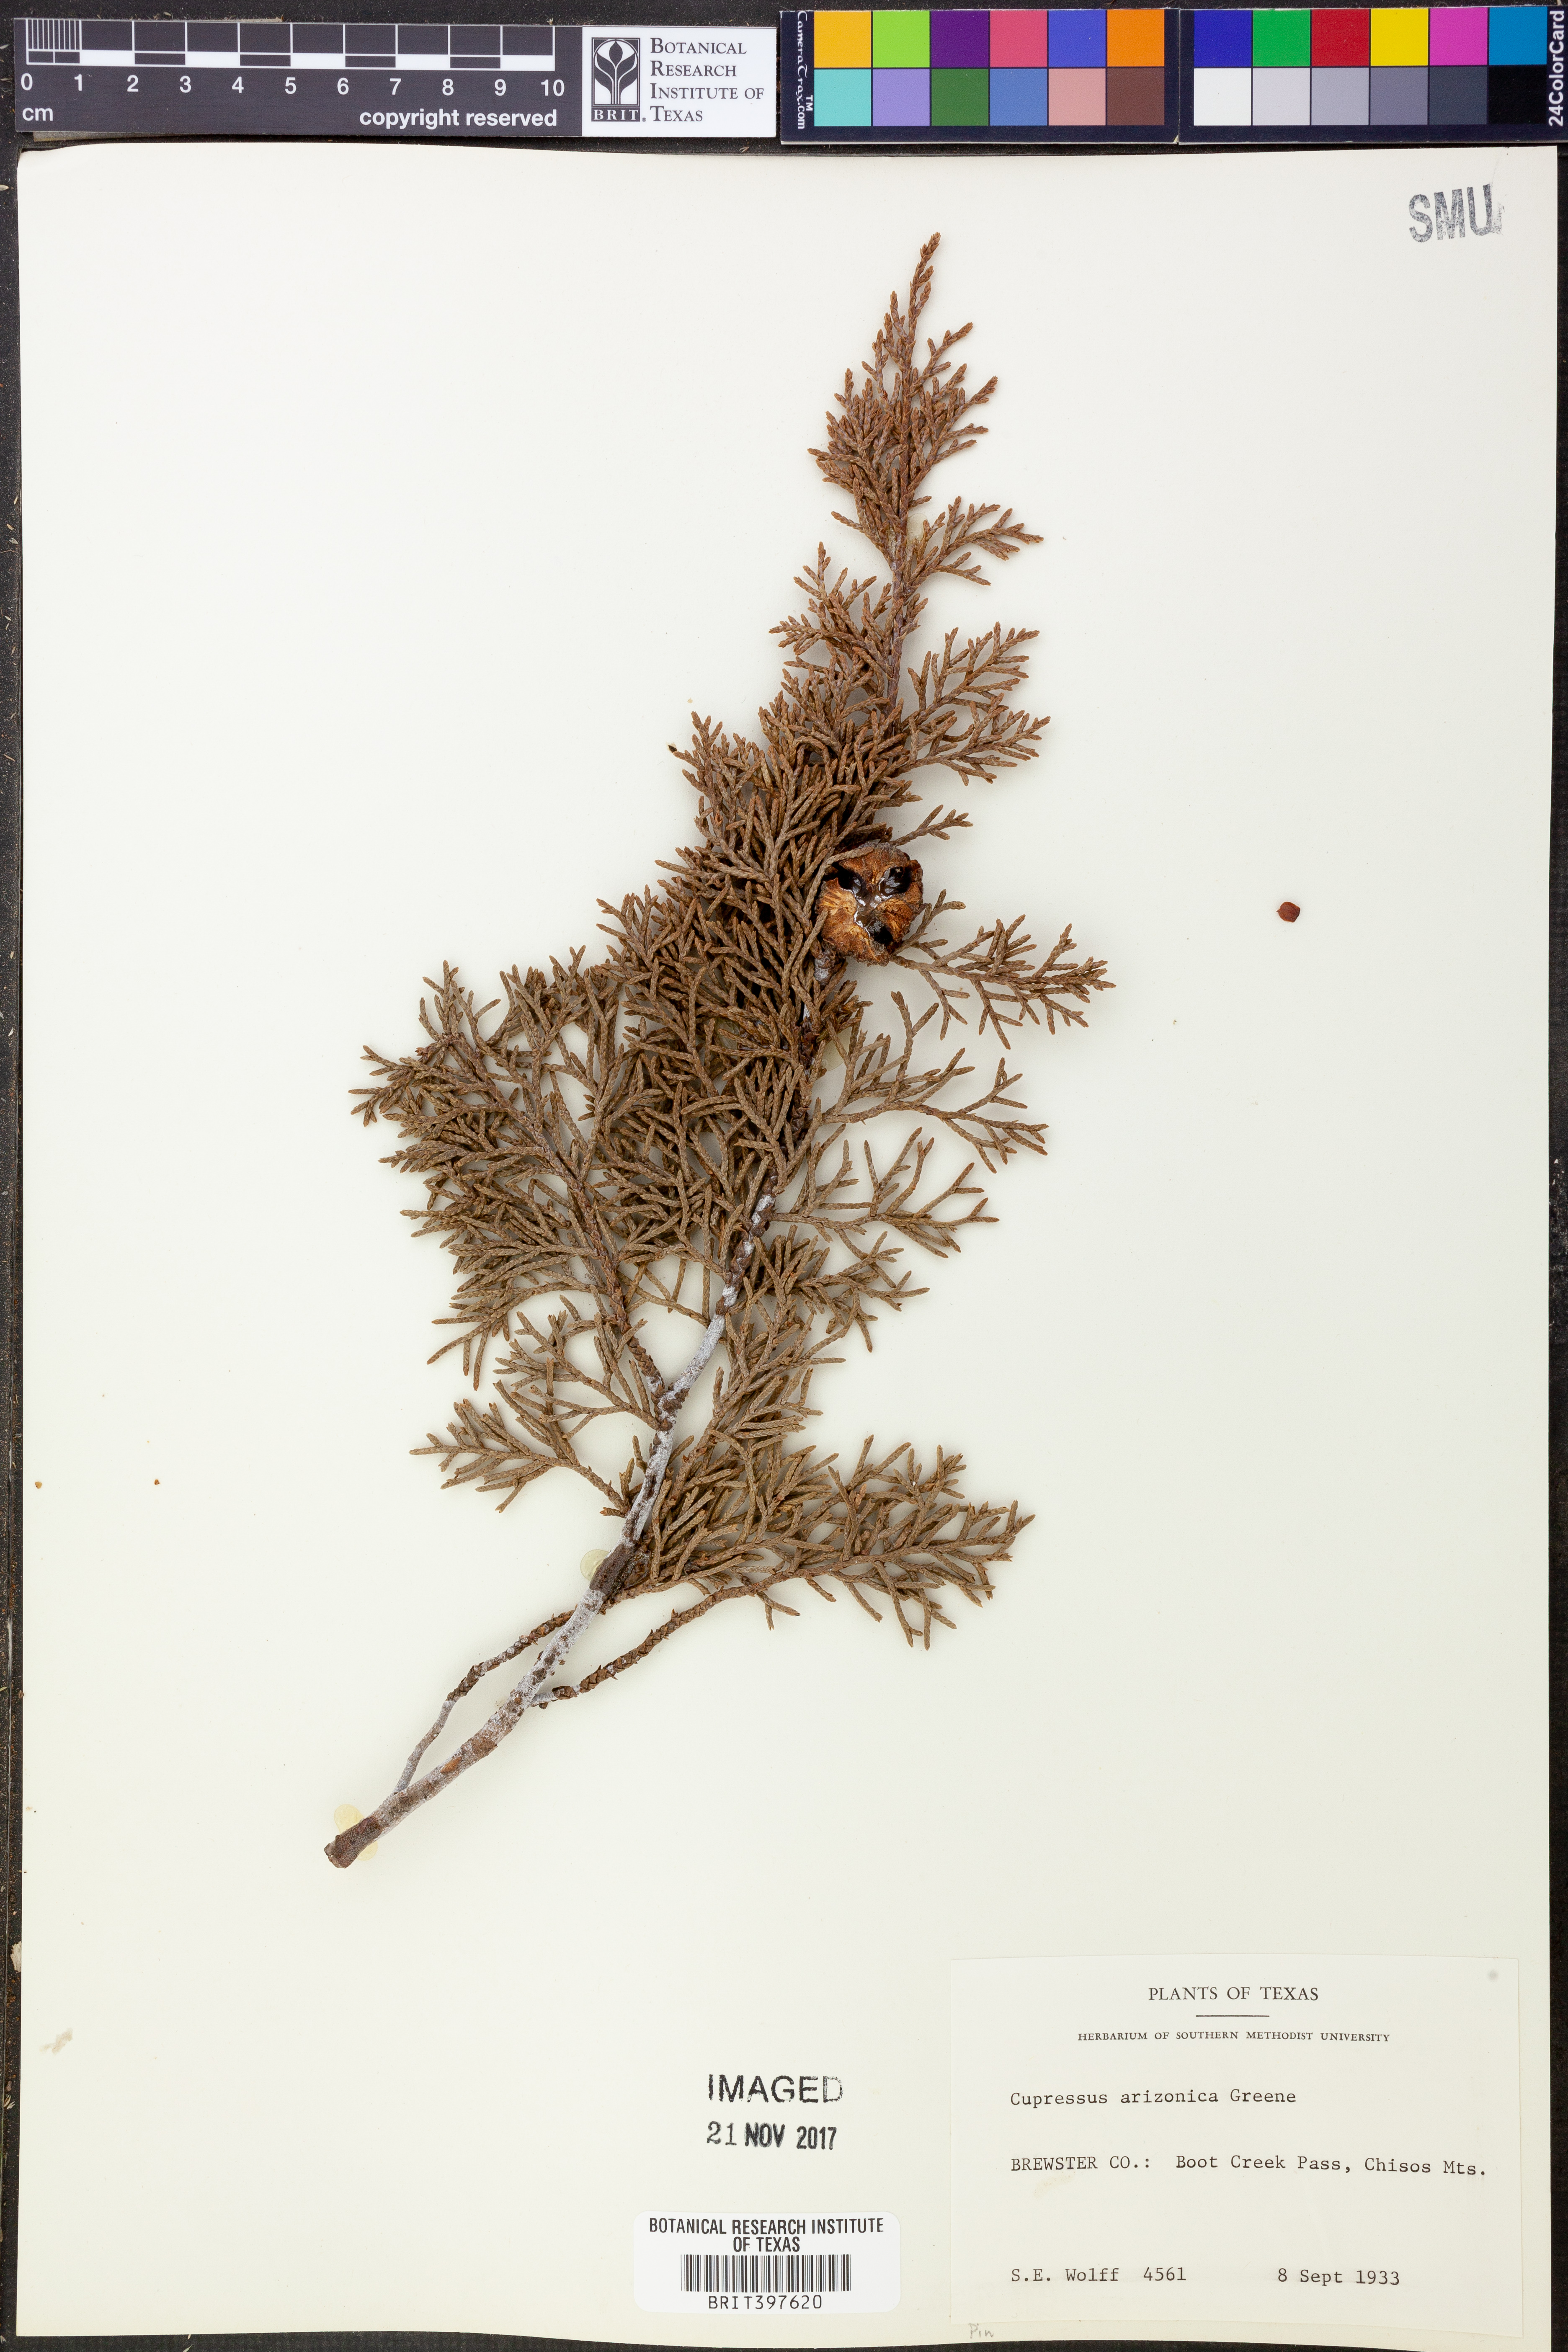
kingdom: Plantae
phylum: Tracheophyta
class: Pinopsida
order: Pinales
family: Cupressaceae
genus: Cupressus
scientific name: Cupressus arizonica
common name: Arizona cypress
